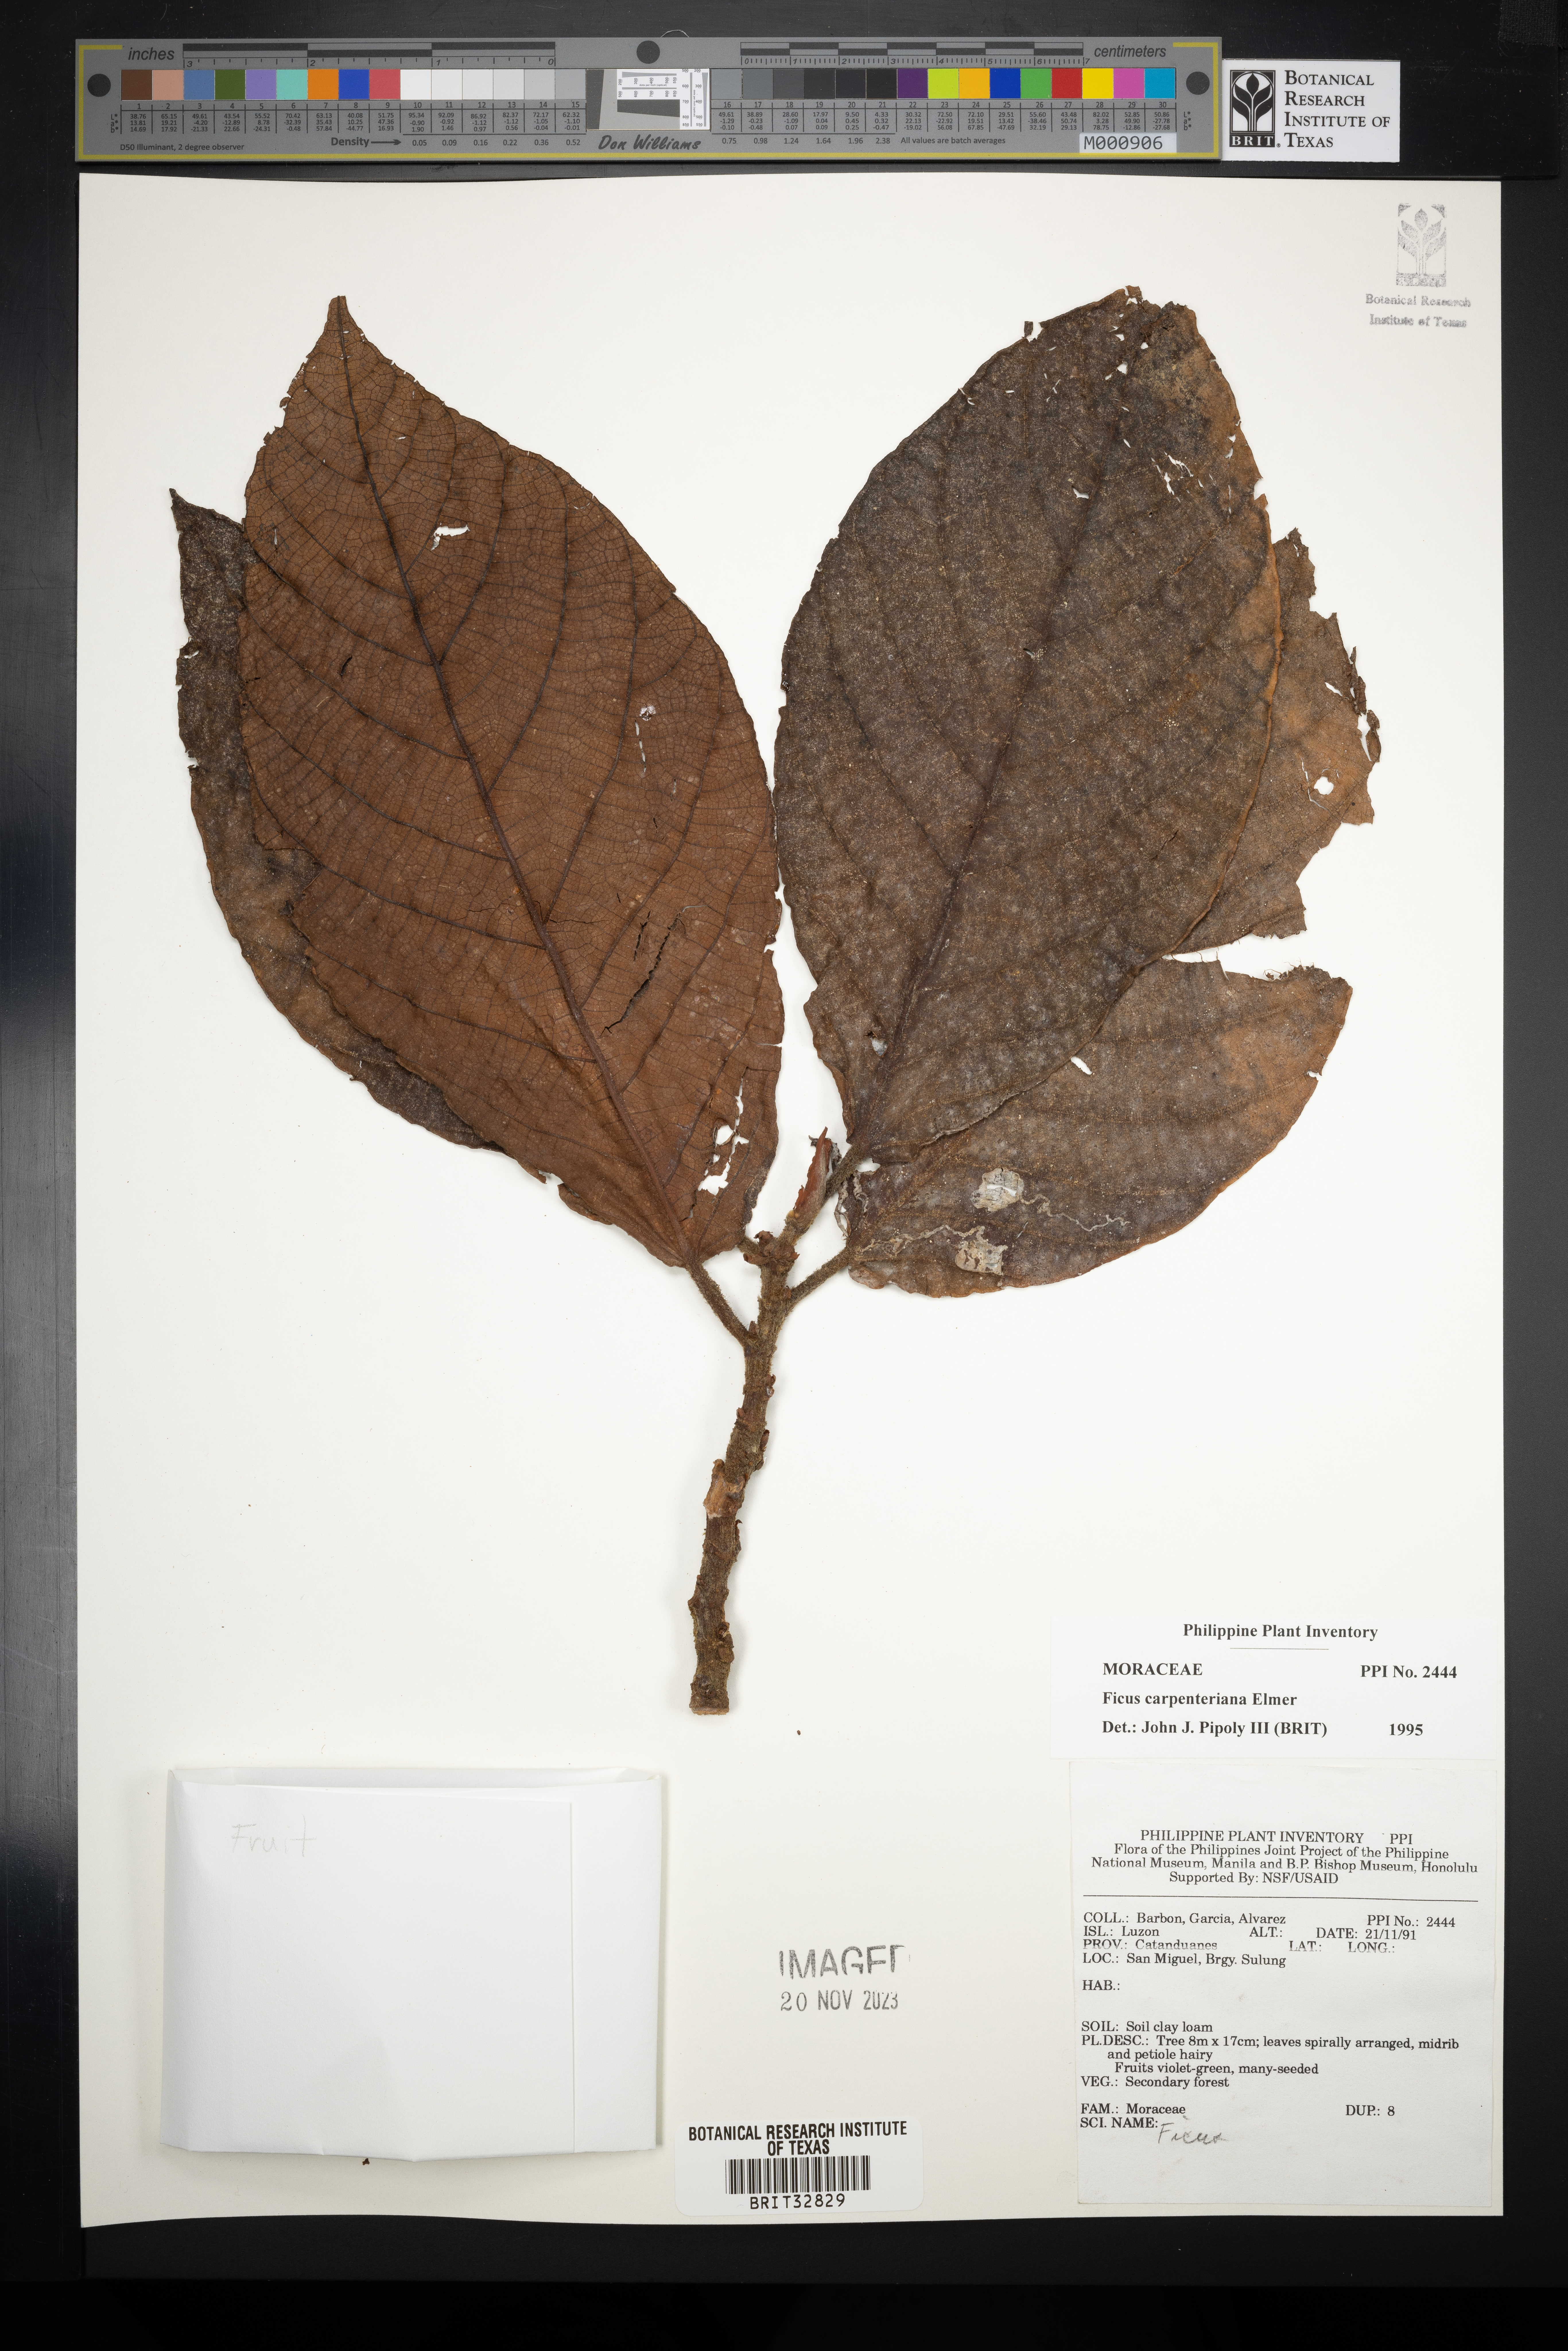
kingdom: Plantae
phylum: Tracheophyta
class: Magnoliopsida
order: Rosales
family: Moraceae
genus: Ficus
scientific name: Ficus carpenteriana
